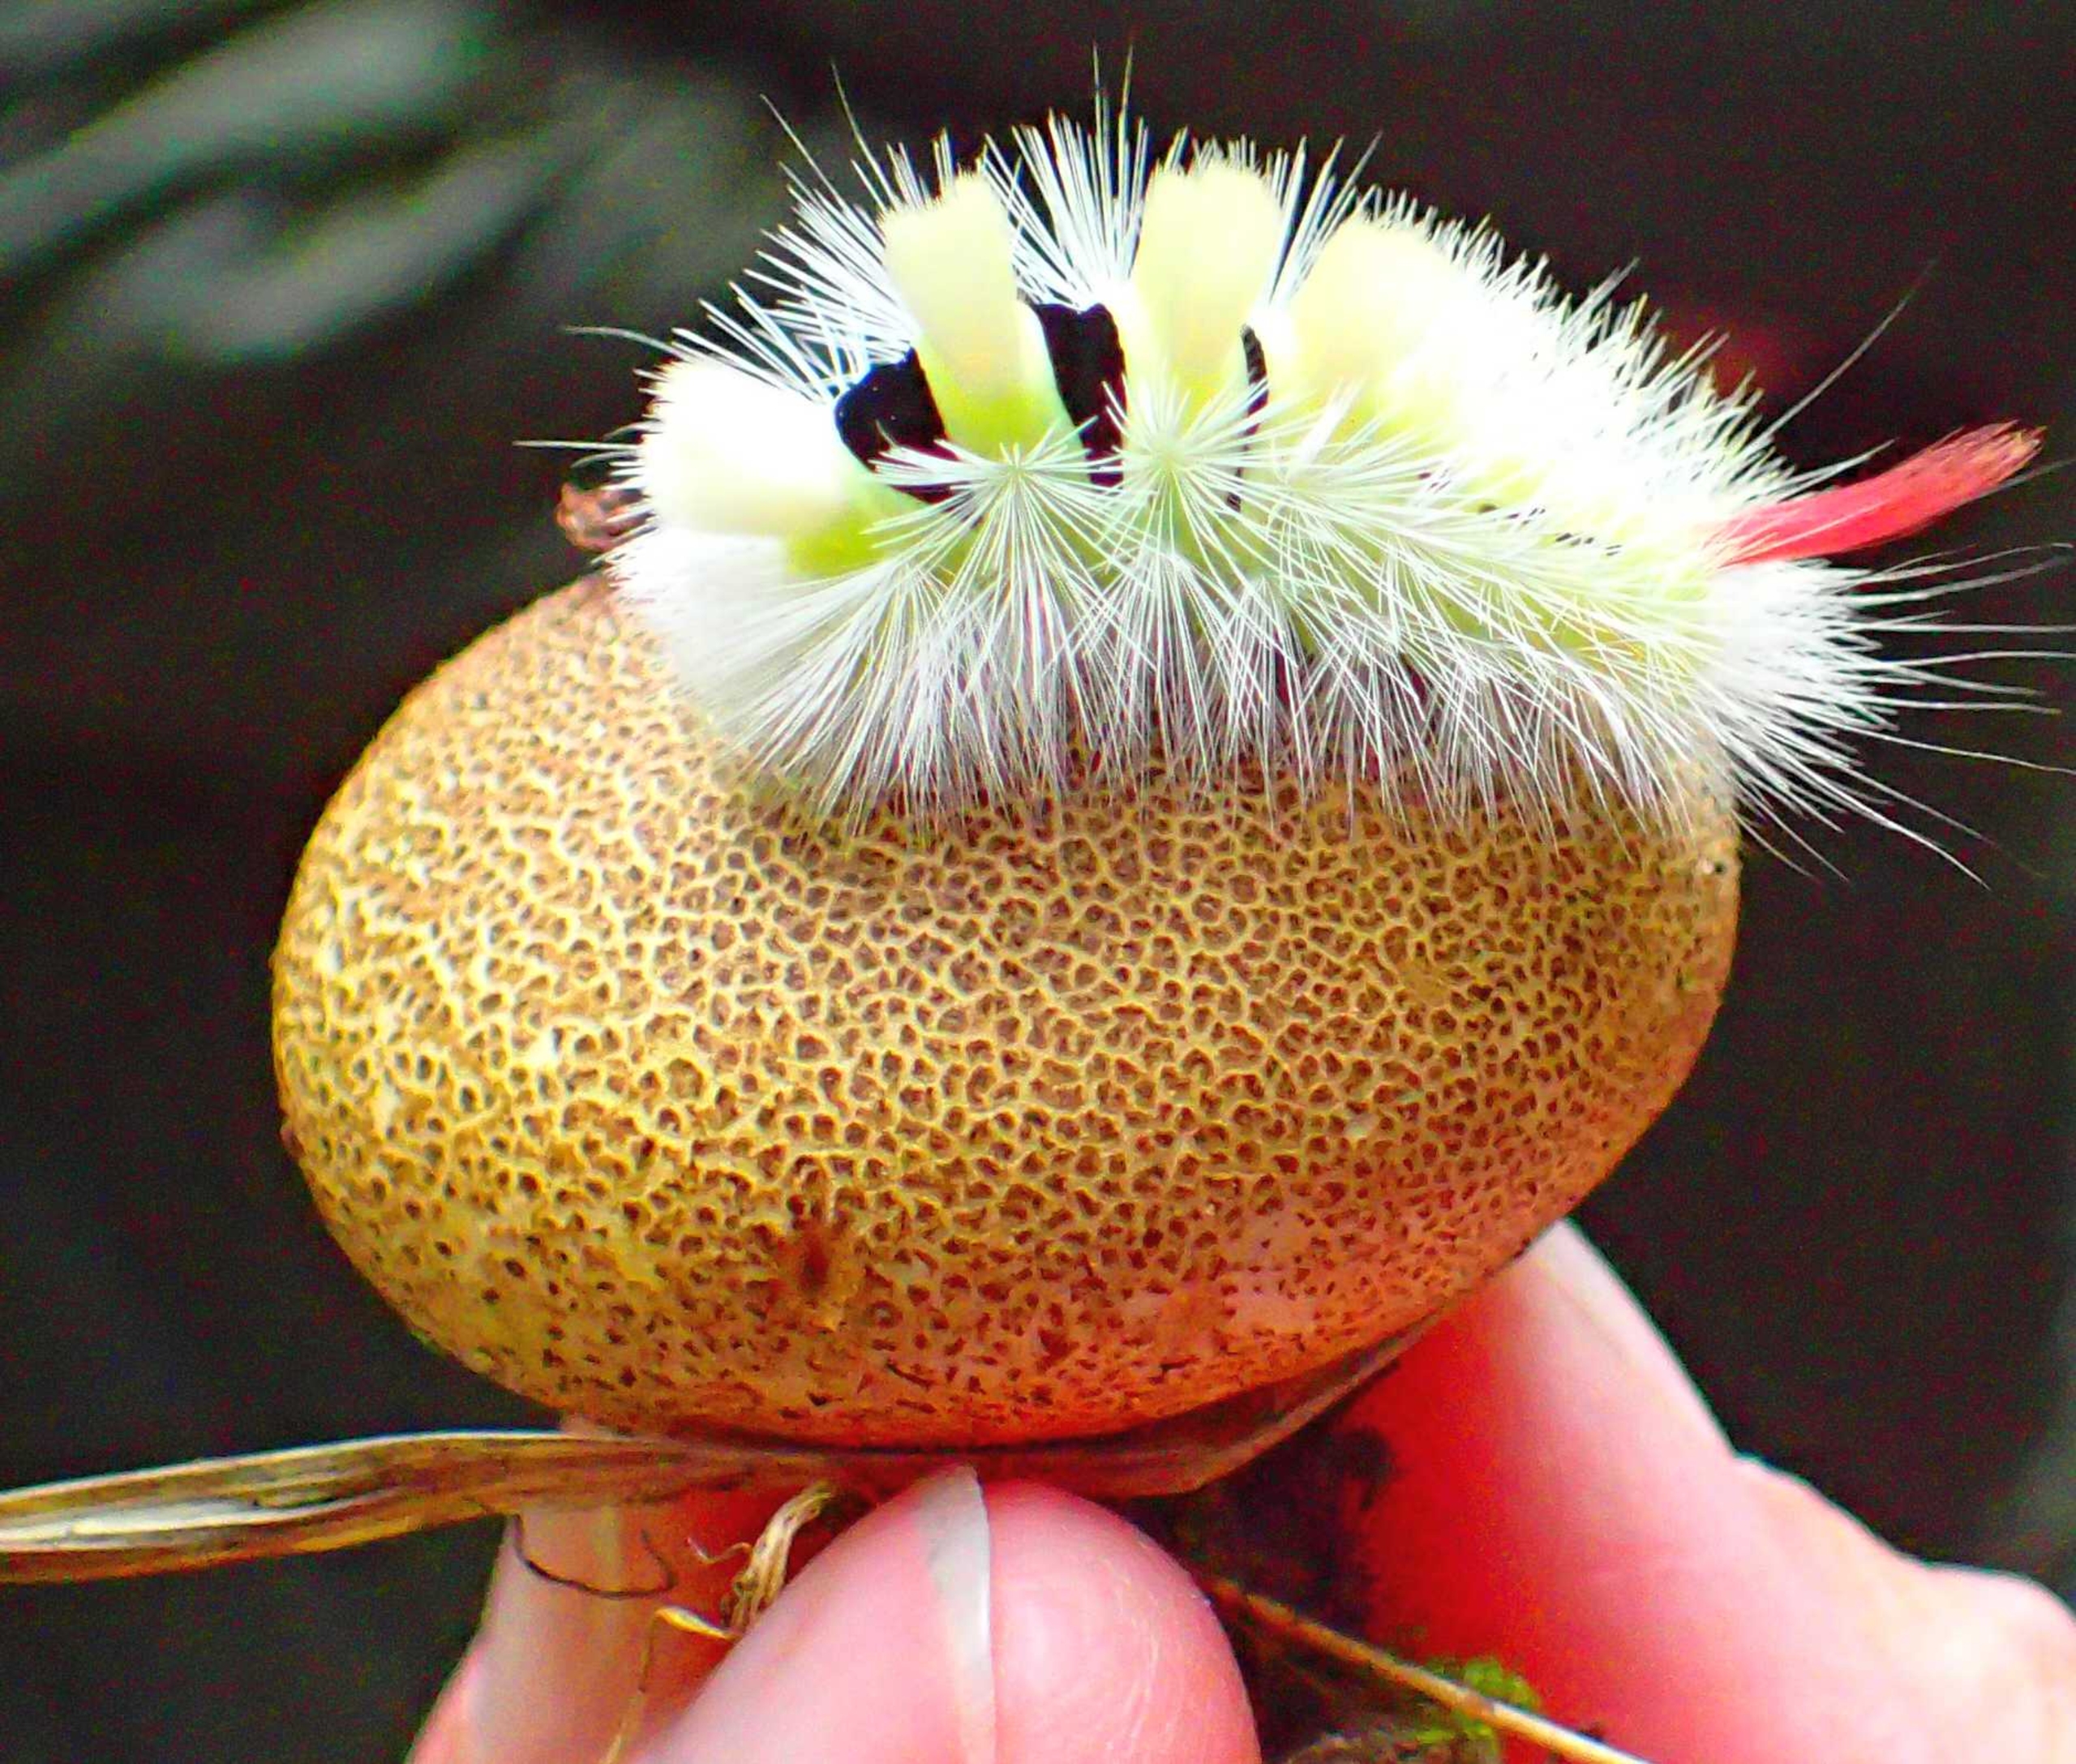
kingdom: Animalia
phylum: Arthropoda
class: Insecta
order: Lepidoptera
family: Erebidae
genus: Calliteara
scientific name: Calliteara pudibunda
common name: Bøgenonne
